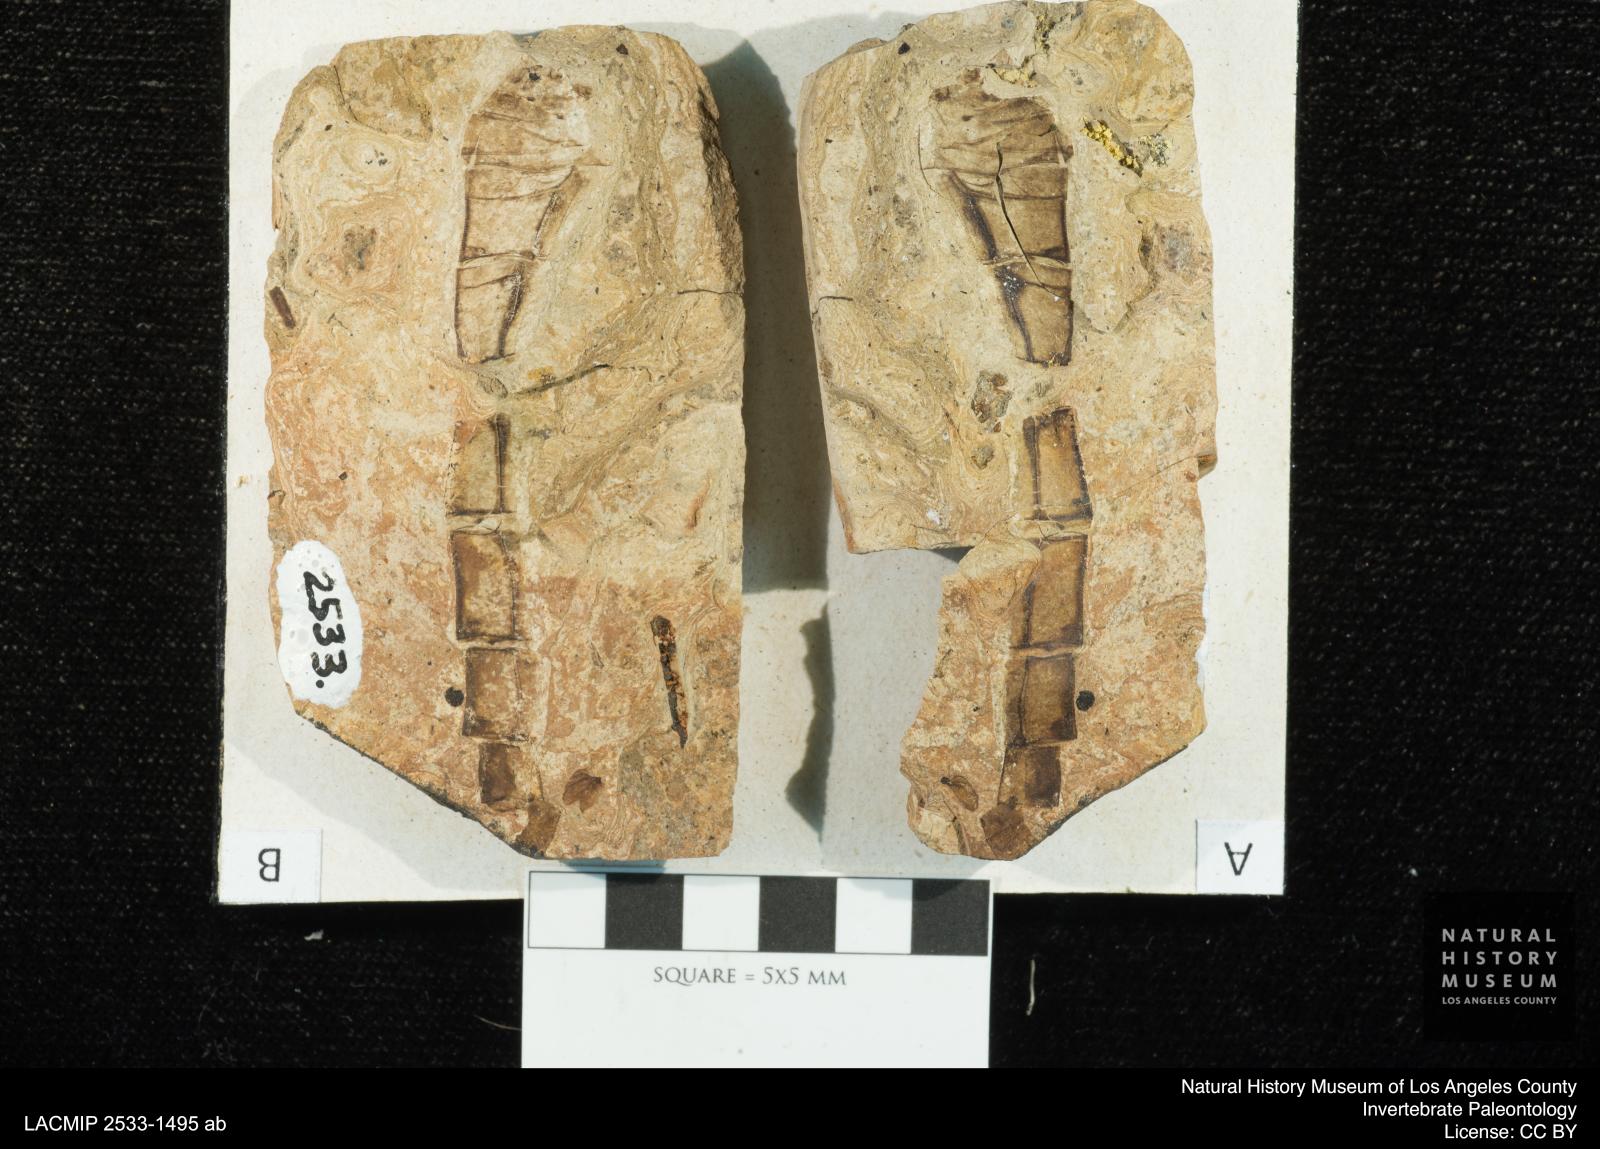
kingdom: Animalia
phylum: Arthropoda
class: Insecta
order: Odonata
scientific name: Odonata
